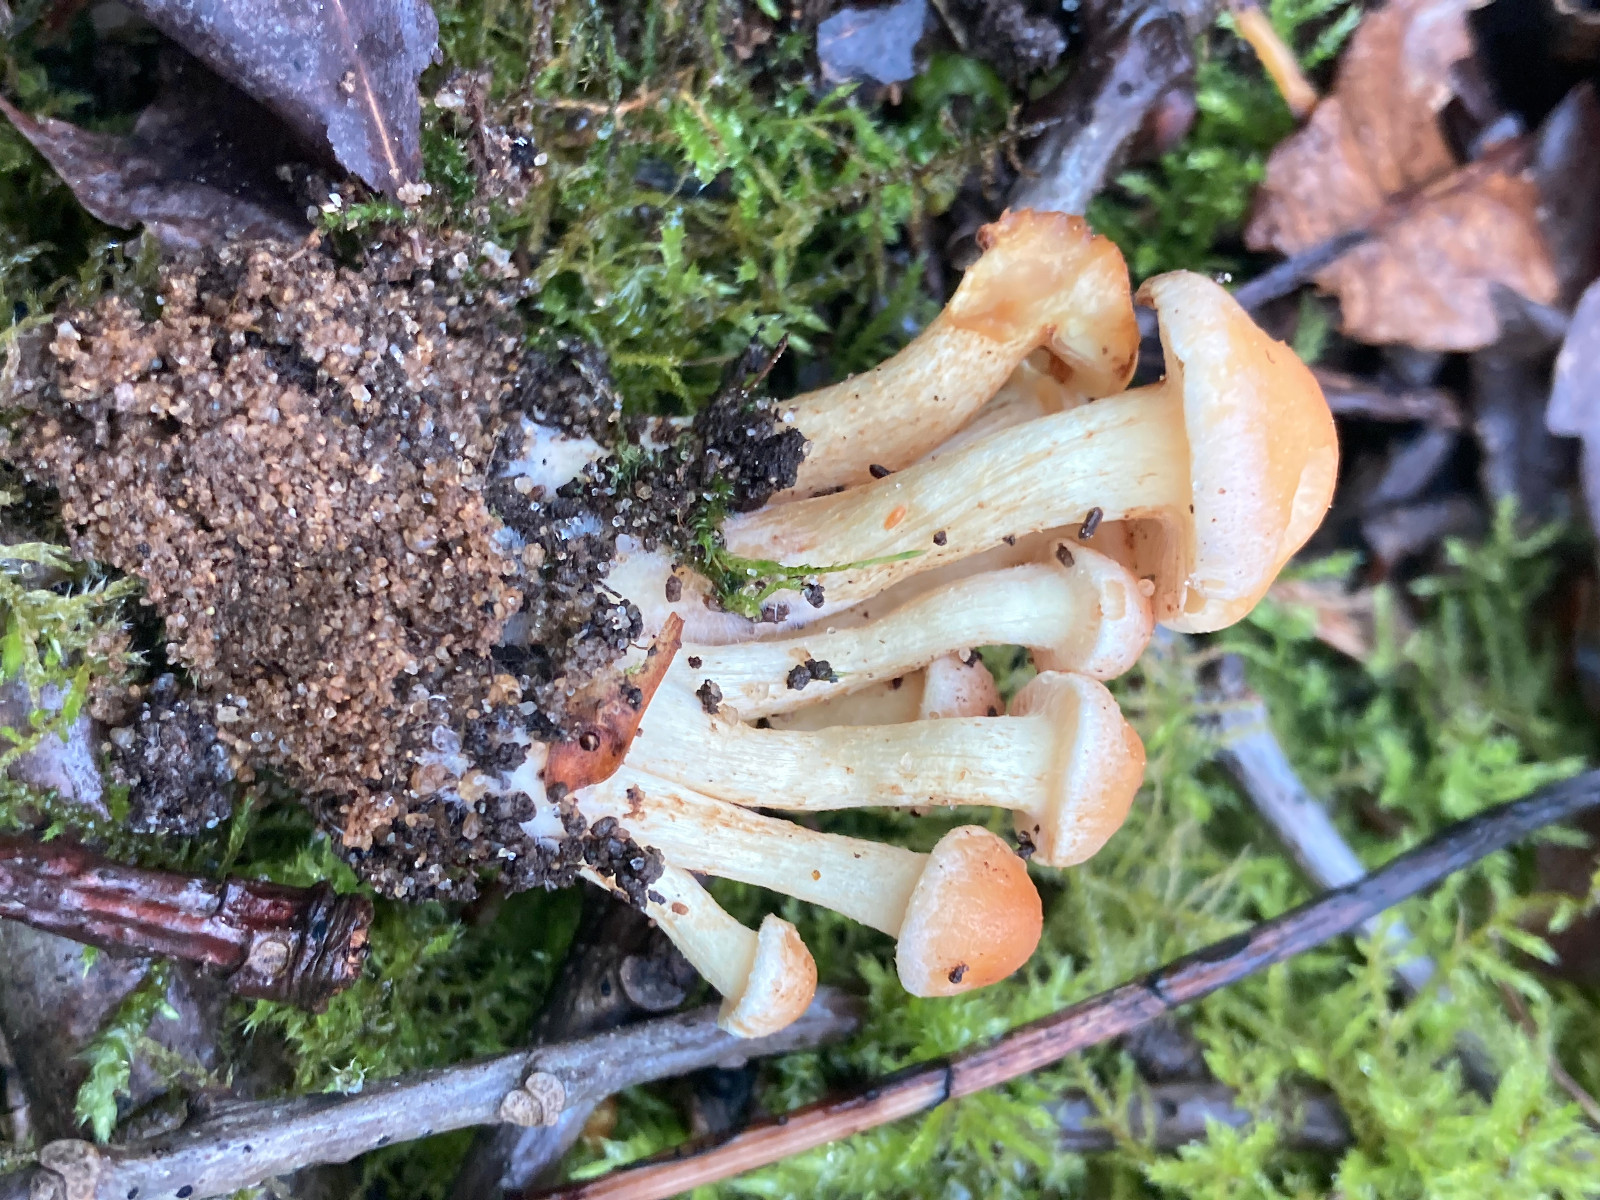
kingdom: Fungi
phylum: Basidiomycota
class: Agaricomycetes
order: Agaricales
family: Strophariaceae
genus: Hypholoma
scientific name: Hypholoma fasciculare
